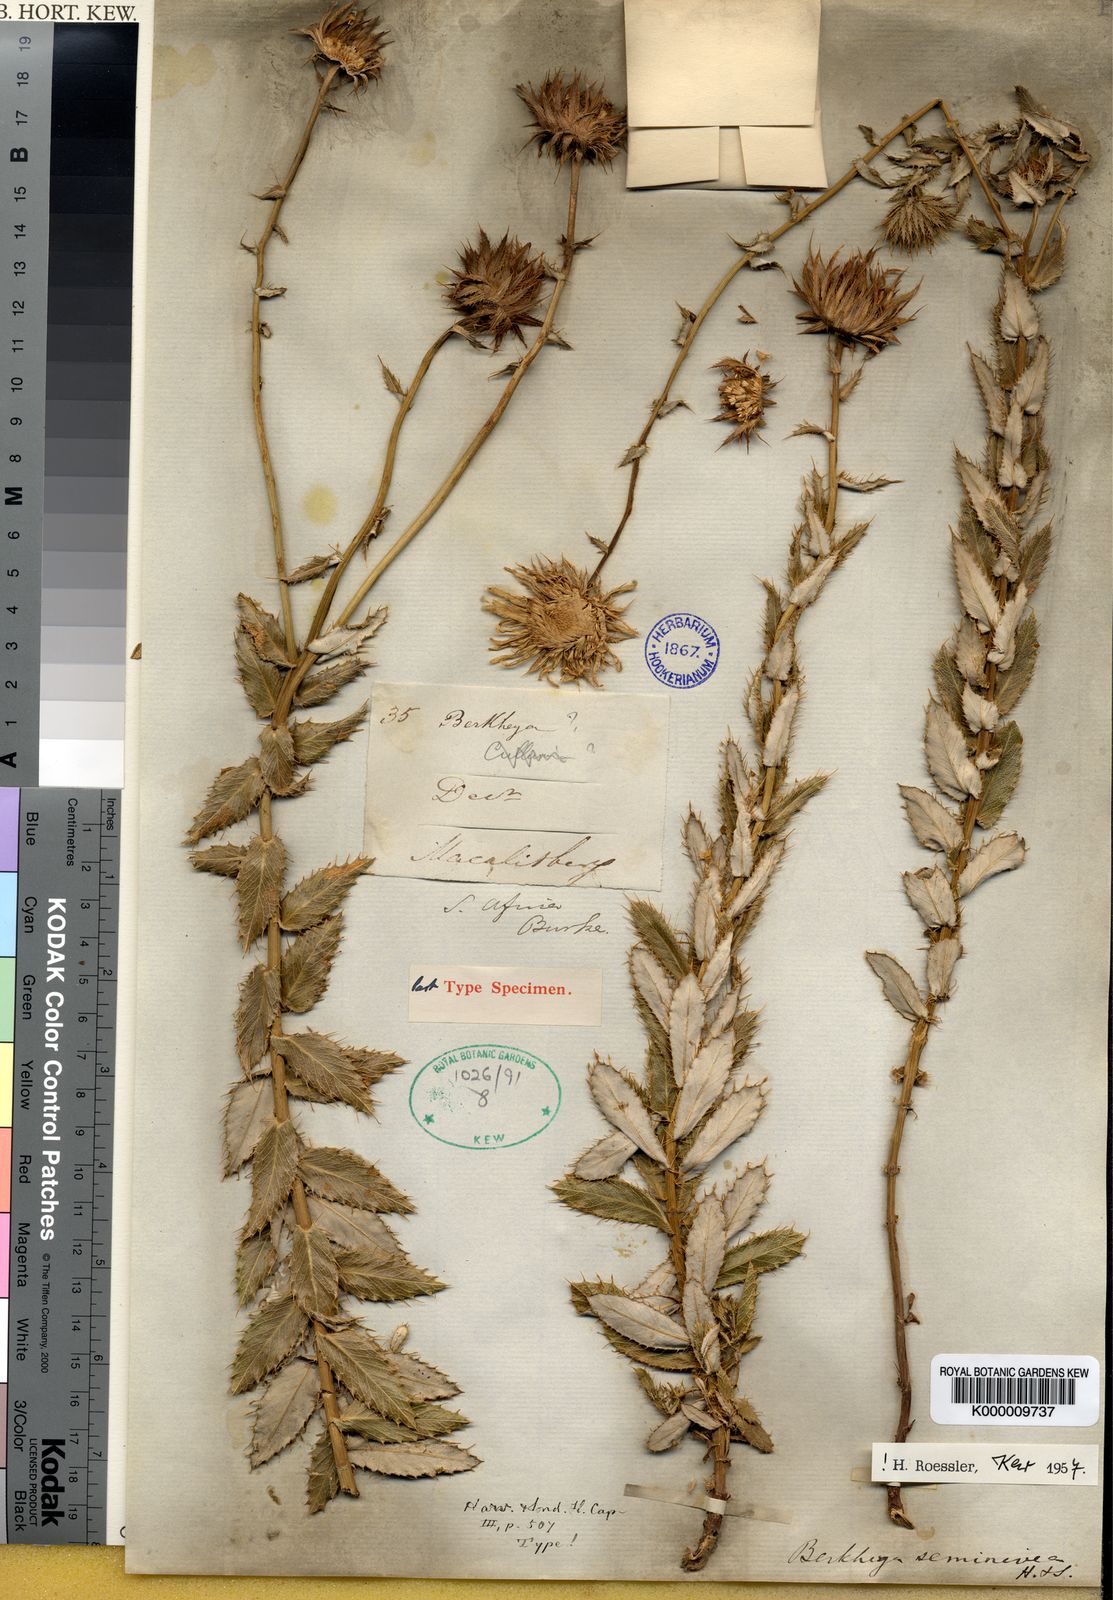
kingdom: Plantae
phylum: Tracheophyta
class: Magnoliopsida
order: Asterales
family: Asteraceae
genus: Berkheya
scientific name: Berkheya seminivea
